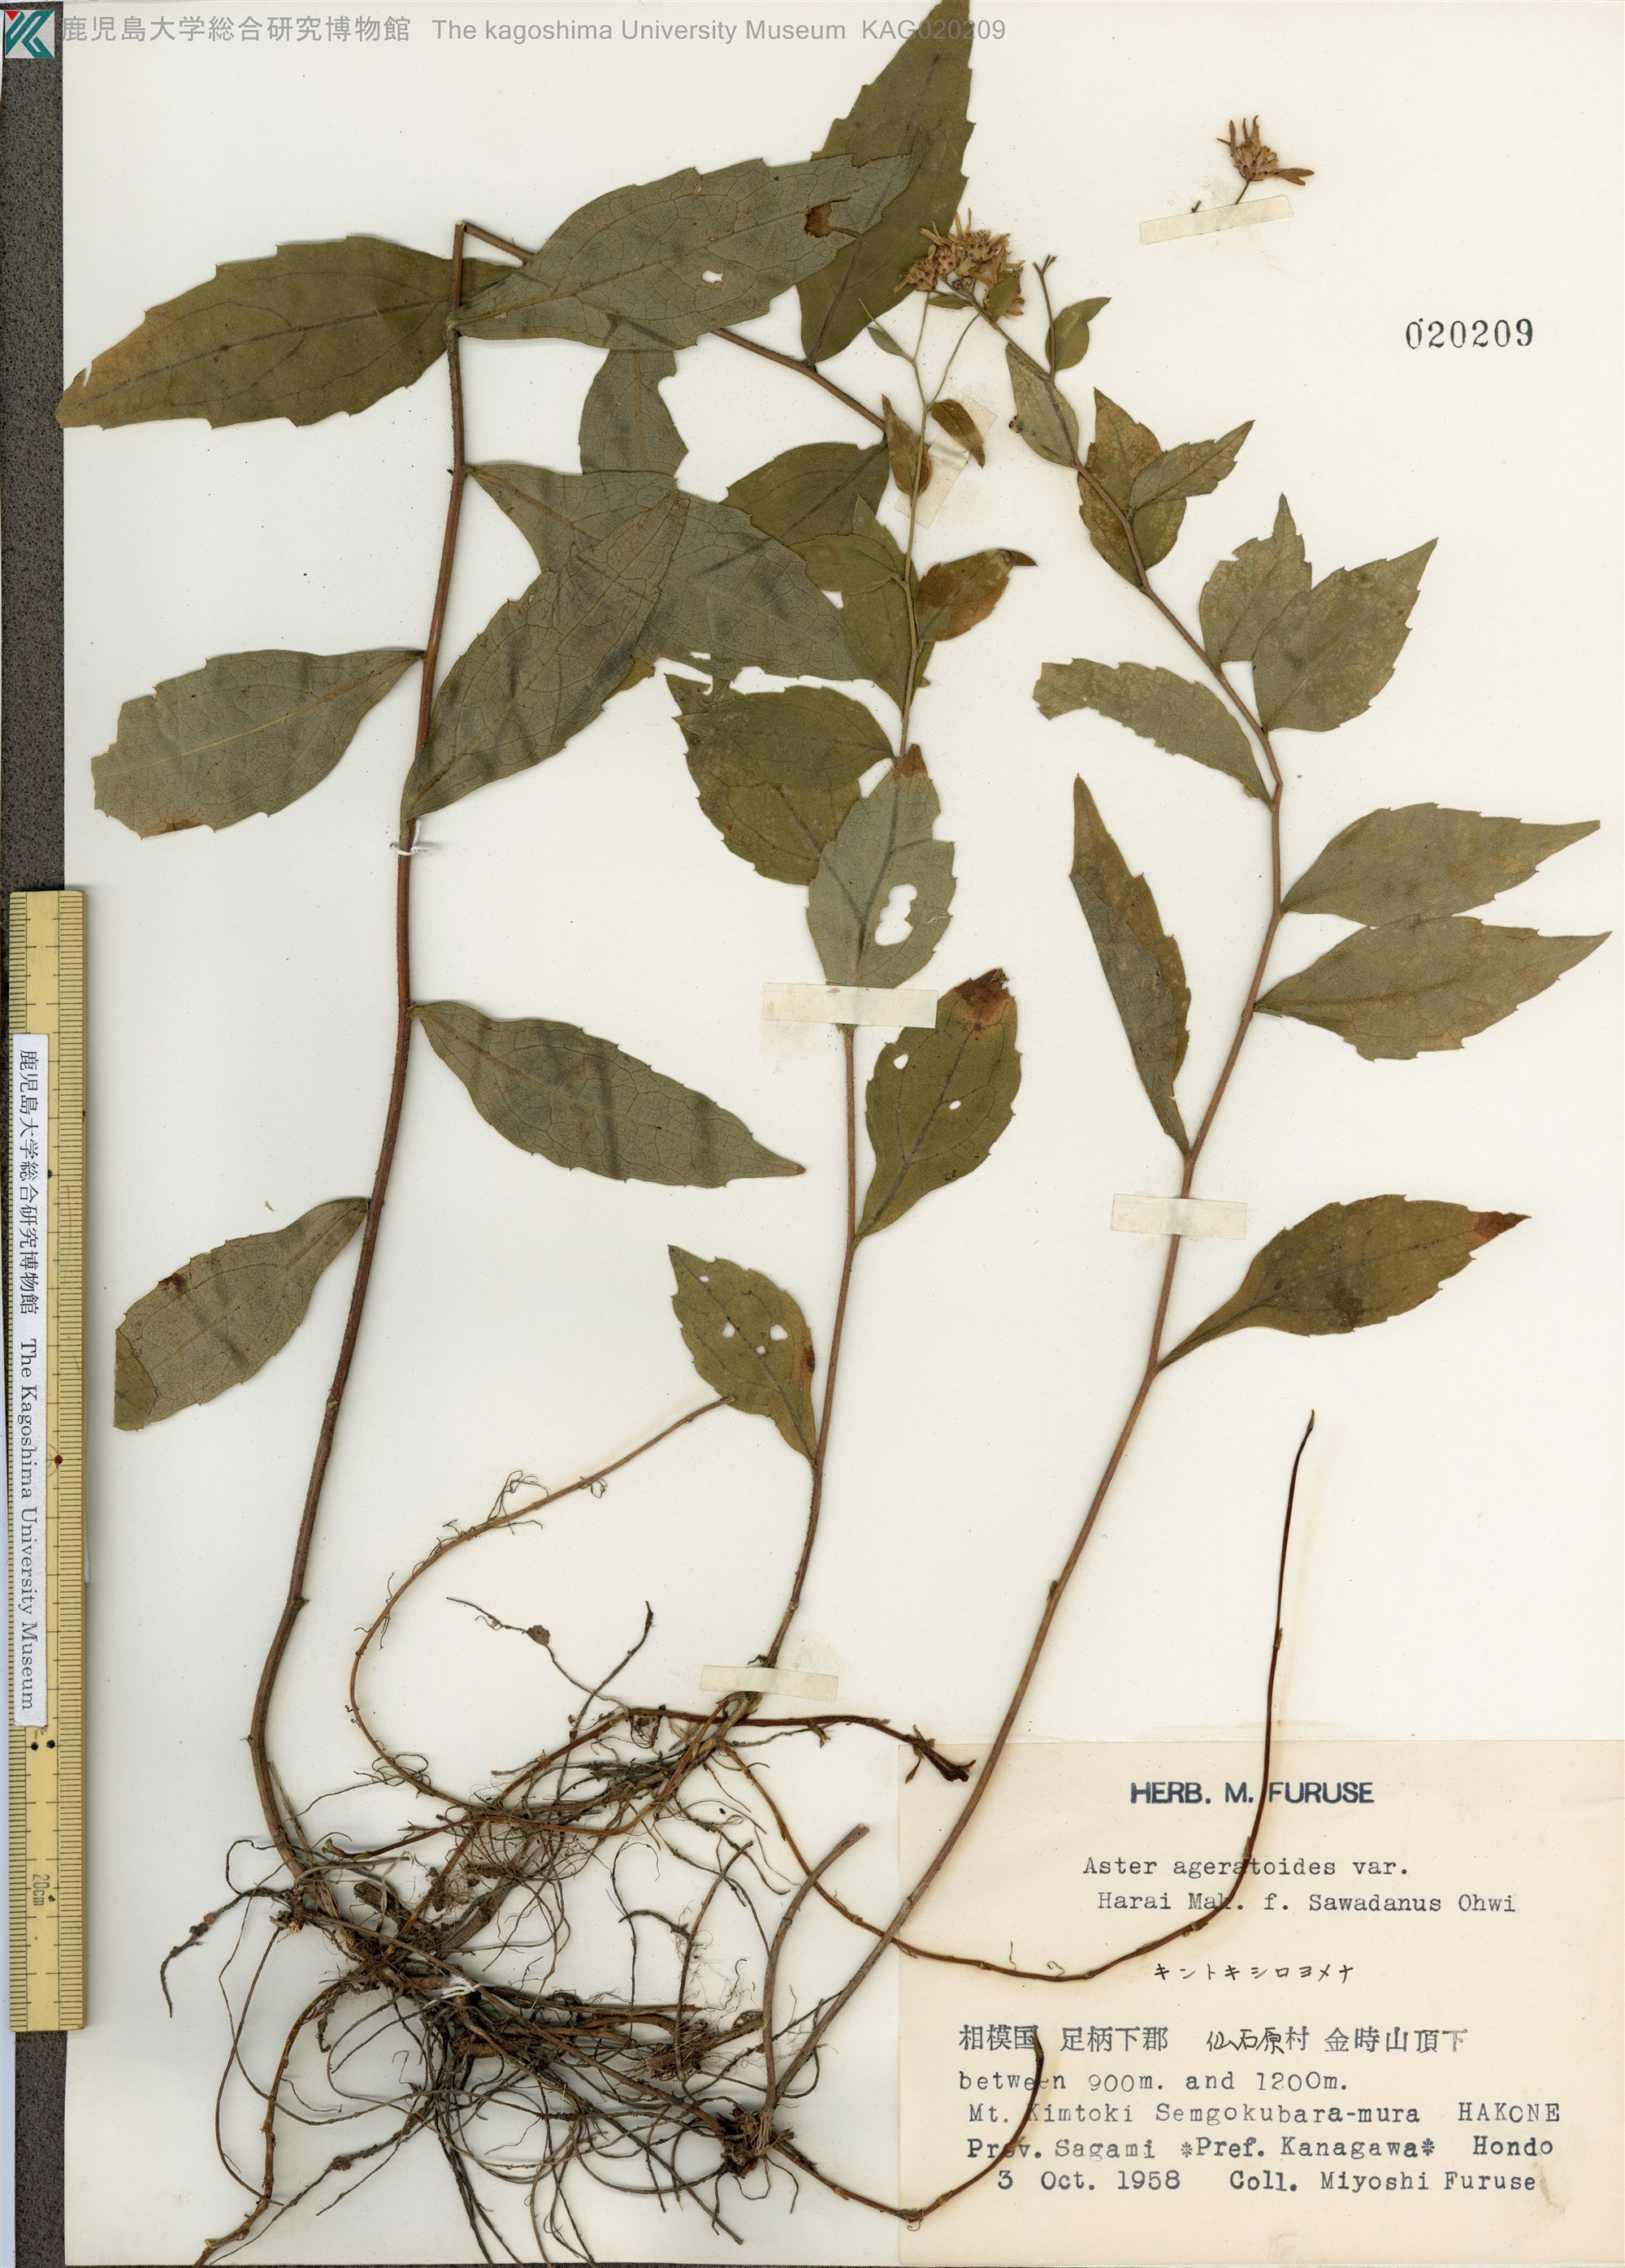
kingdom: Plantae
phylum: Tracheophyta
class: Magnoliopsida
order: Asterales
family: Asteraceae
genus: Aster
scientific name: Aster ageratoides
